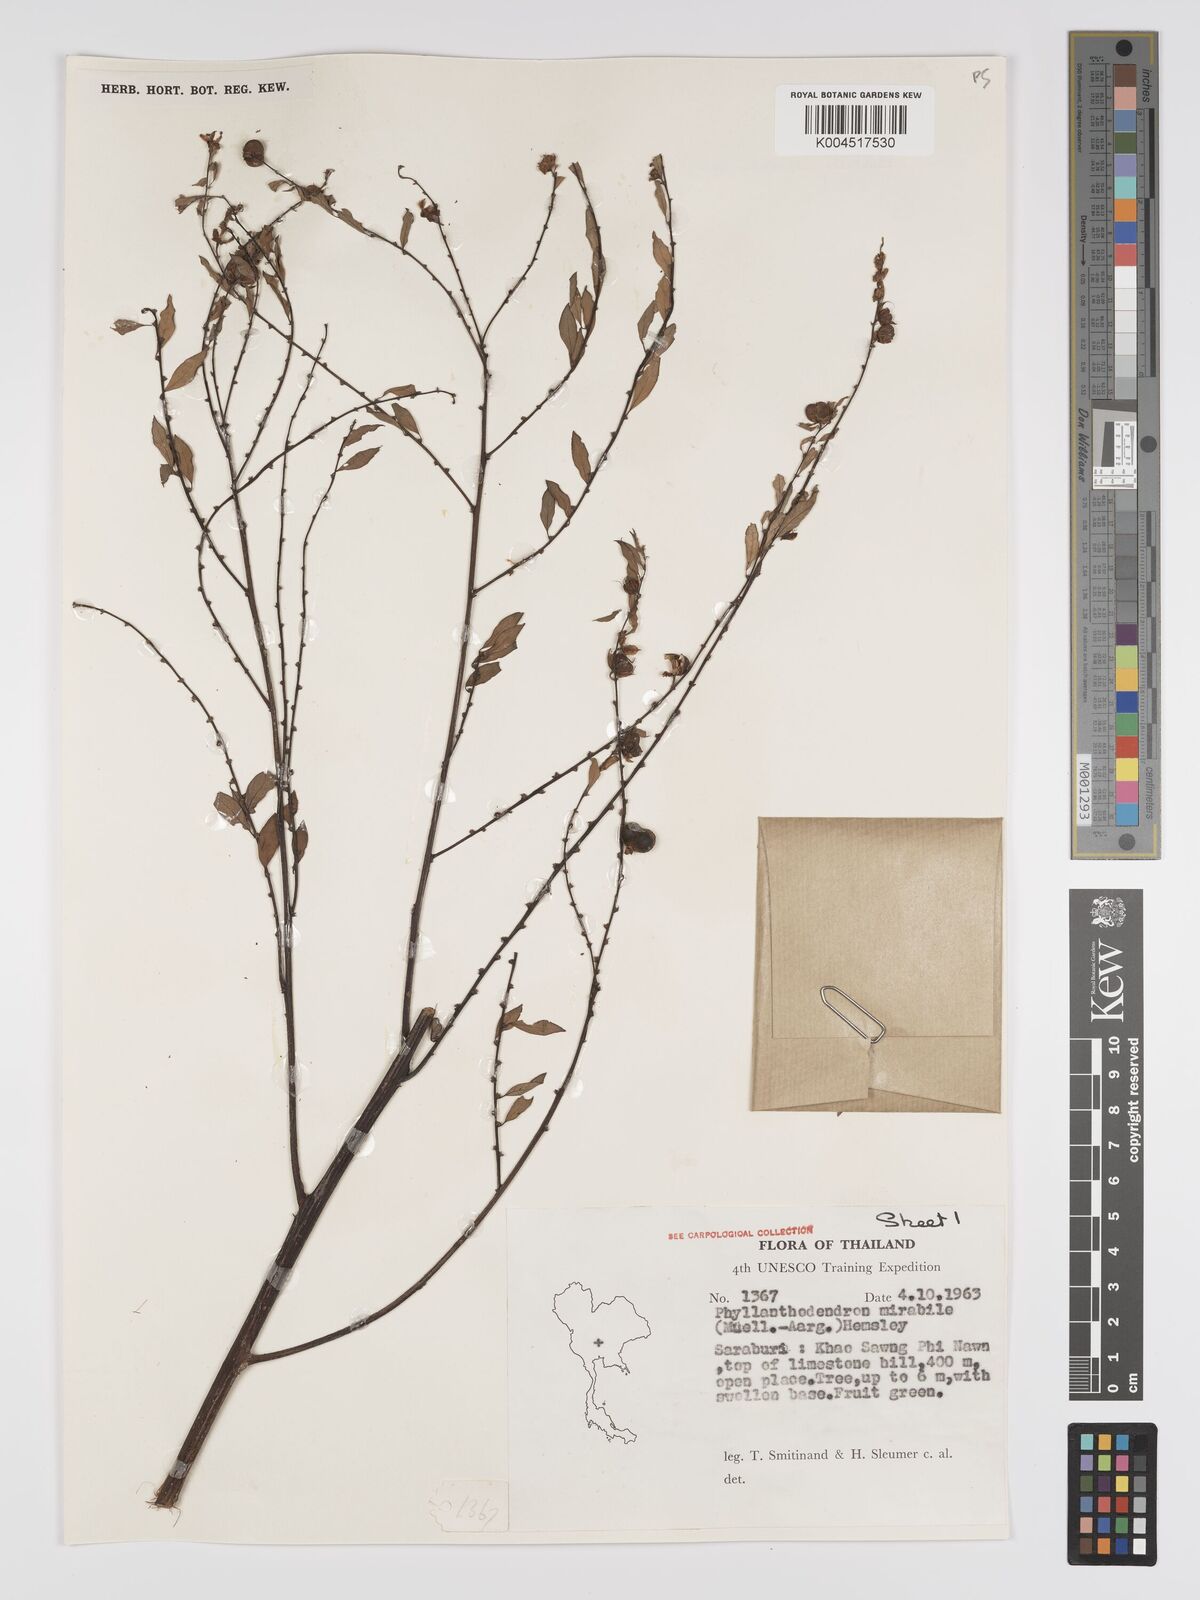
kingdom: Plantae
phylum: Tracheophyta
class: Magnoliopsida
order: Malpighiales
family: Phyllanthaceae
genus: Phyllanthus
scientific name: Phyllanthus mirabilis
